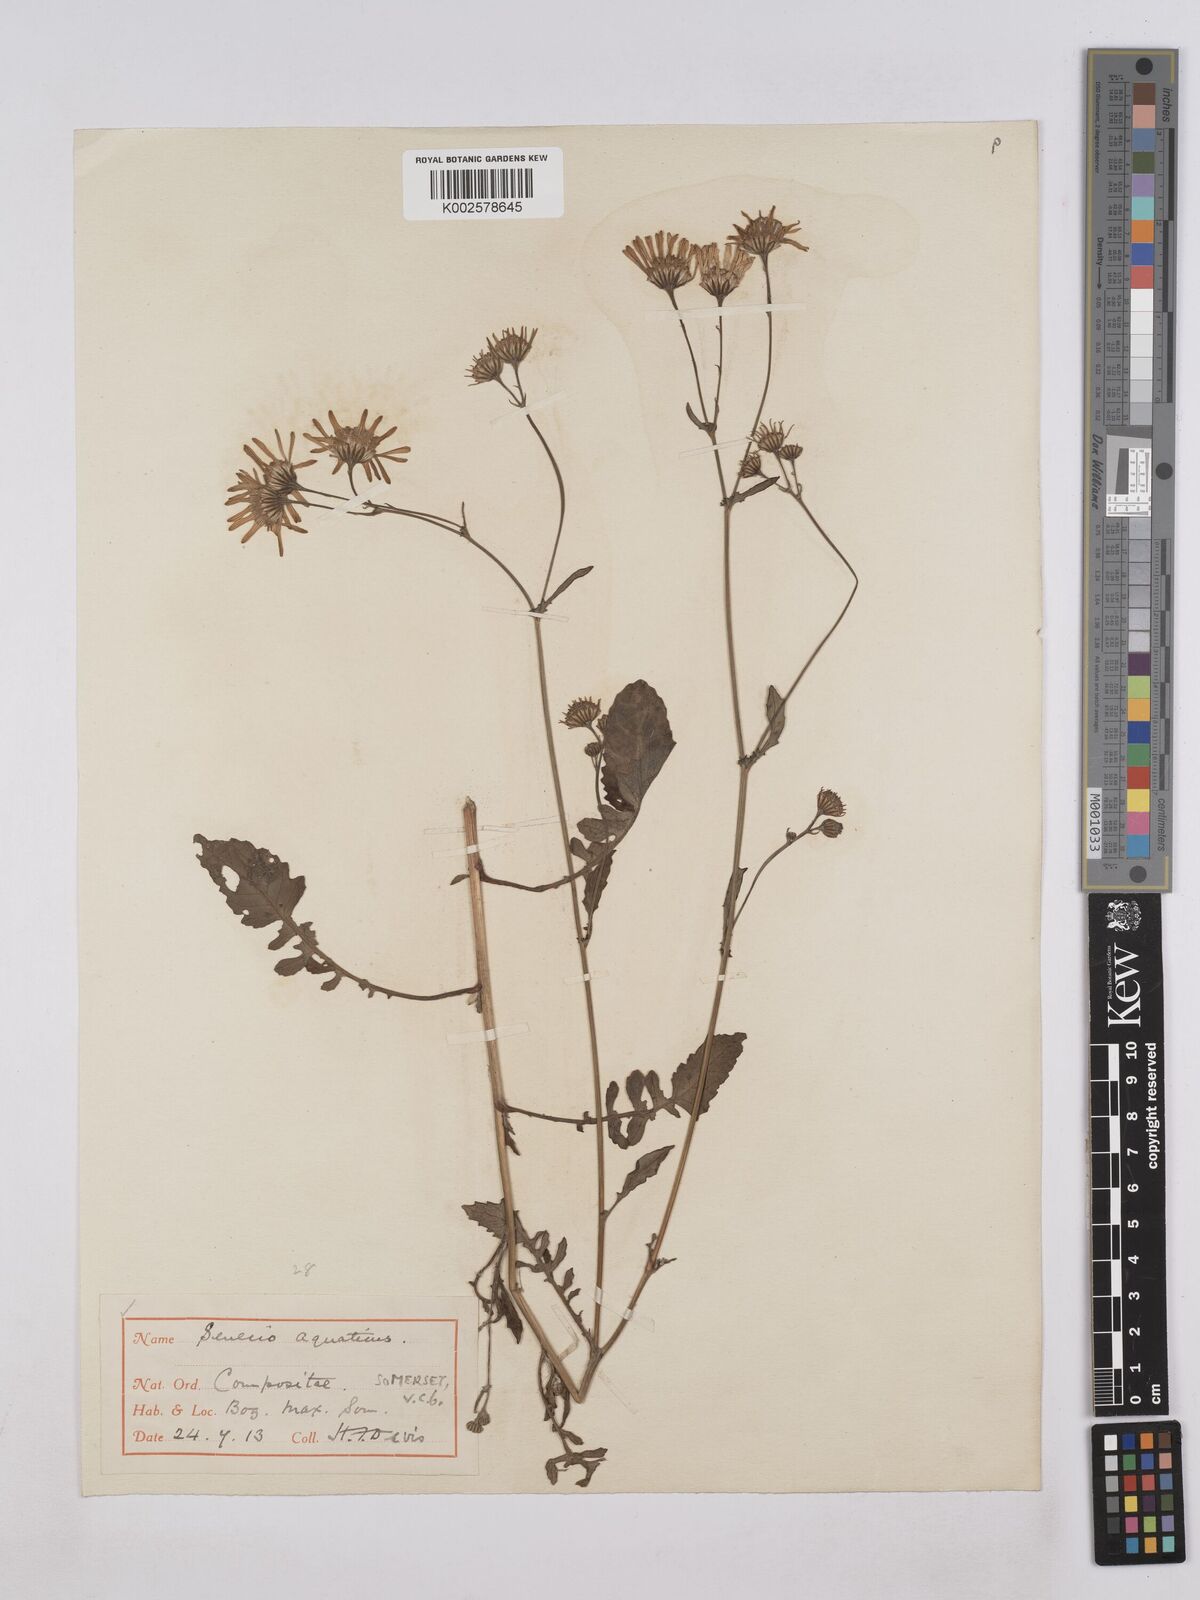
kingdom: Plantae
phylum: Tracheophyta
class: Magnoliopsida
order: Asterales
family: Asteraceae
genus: Jacobaea
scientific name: Jacobaea aquatica
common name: Water ragwort
